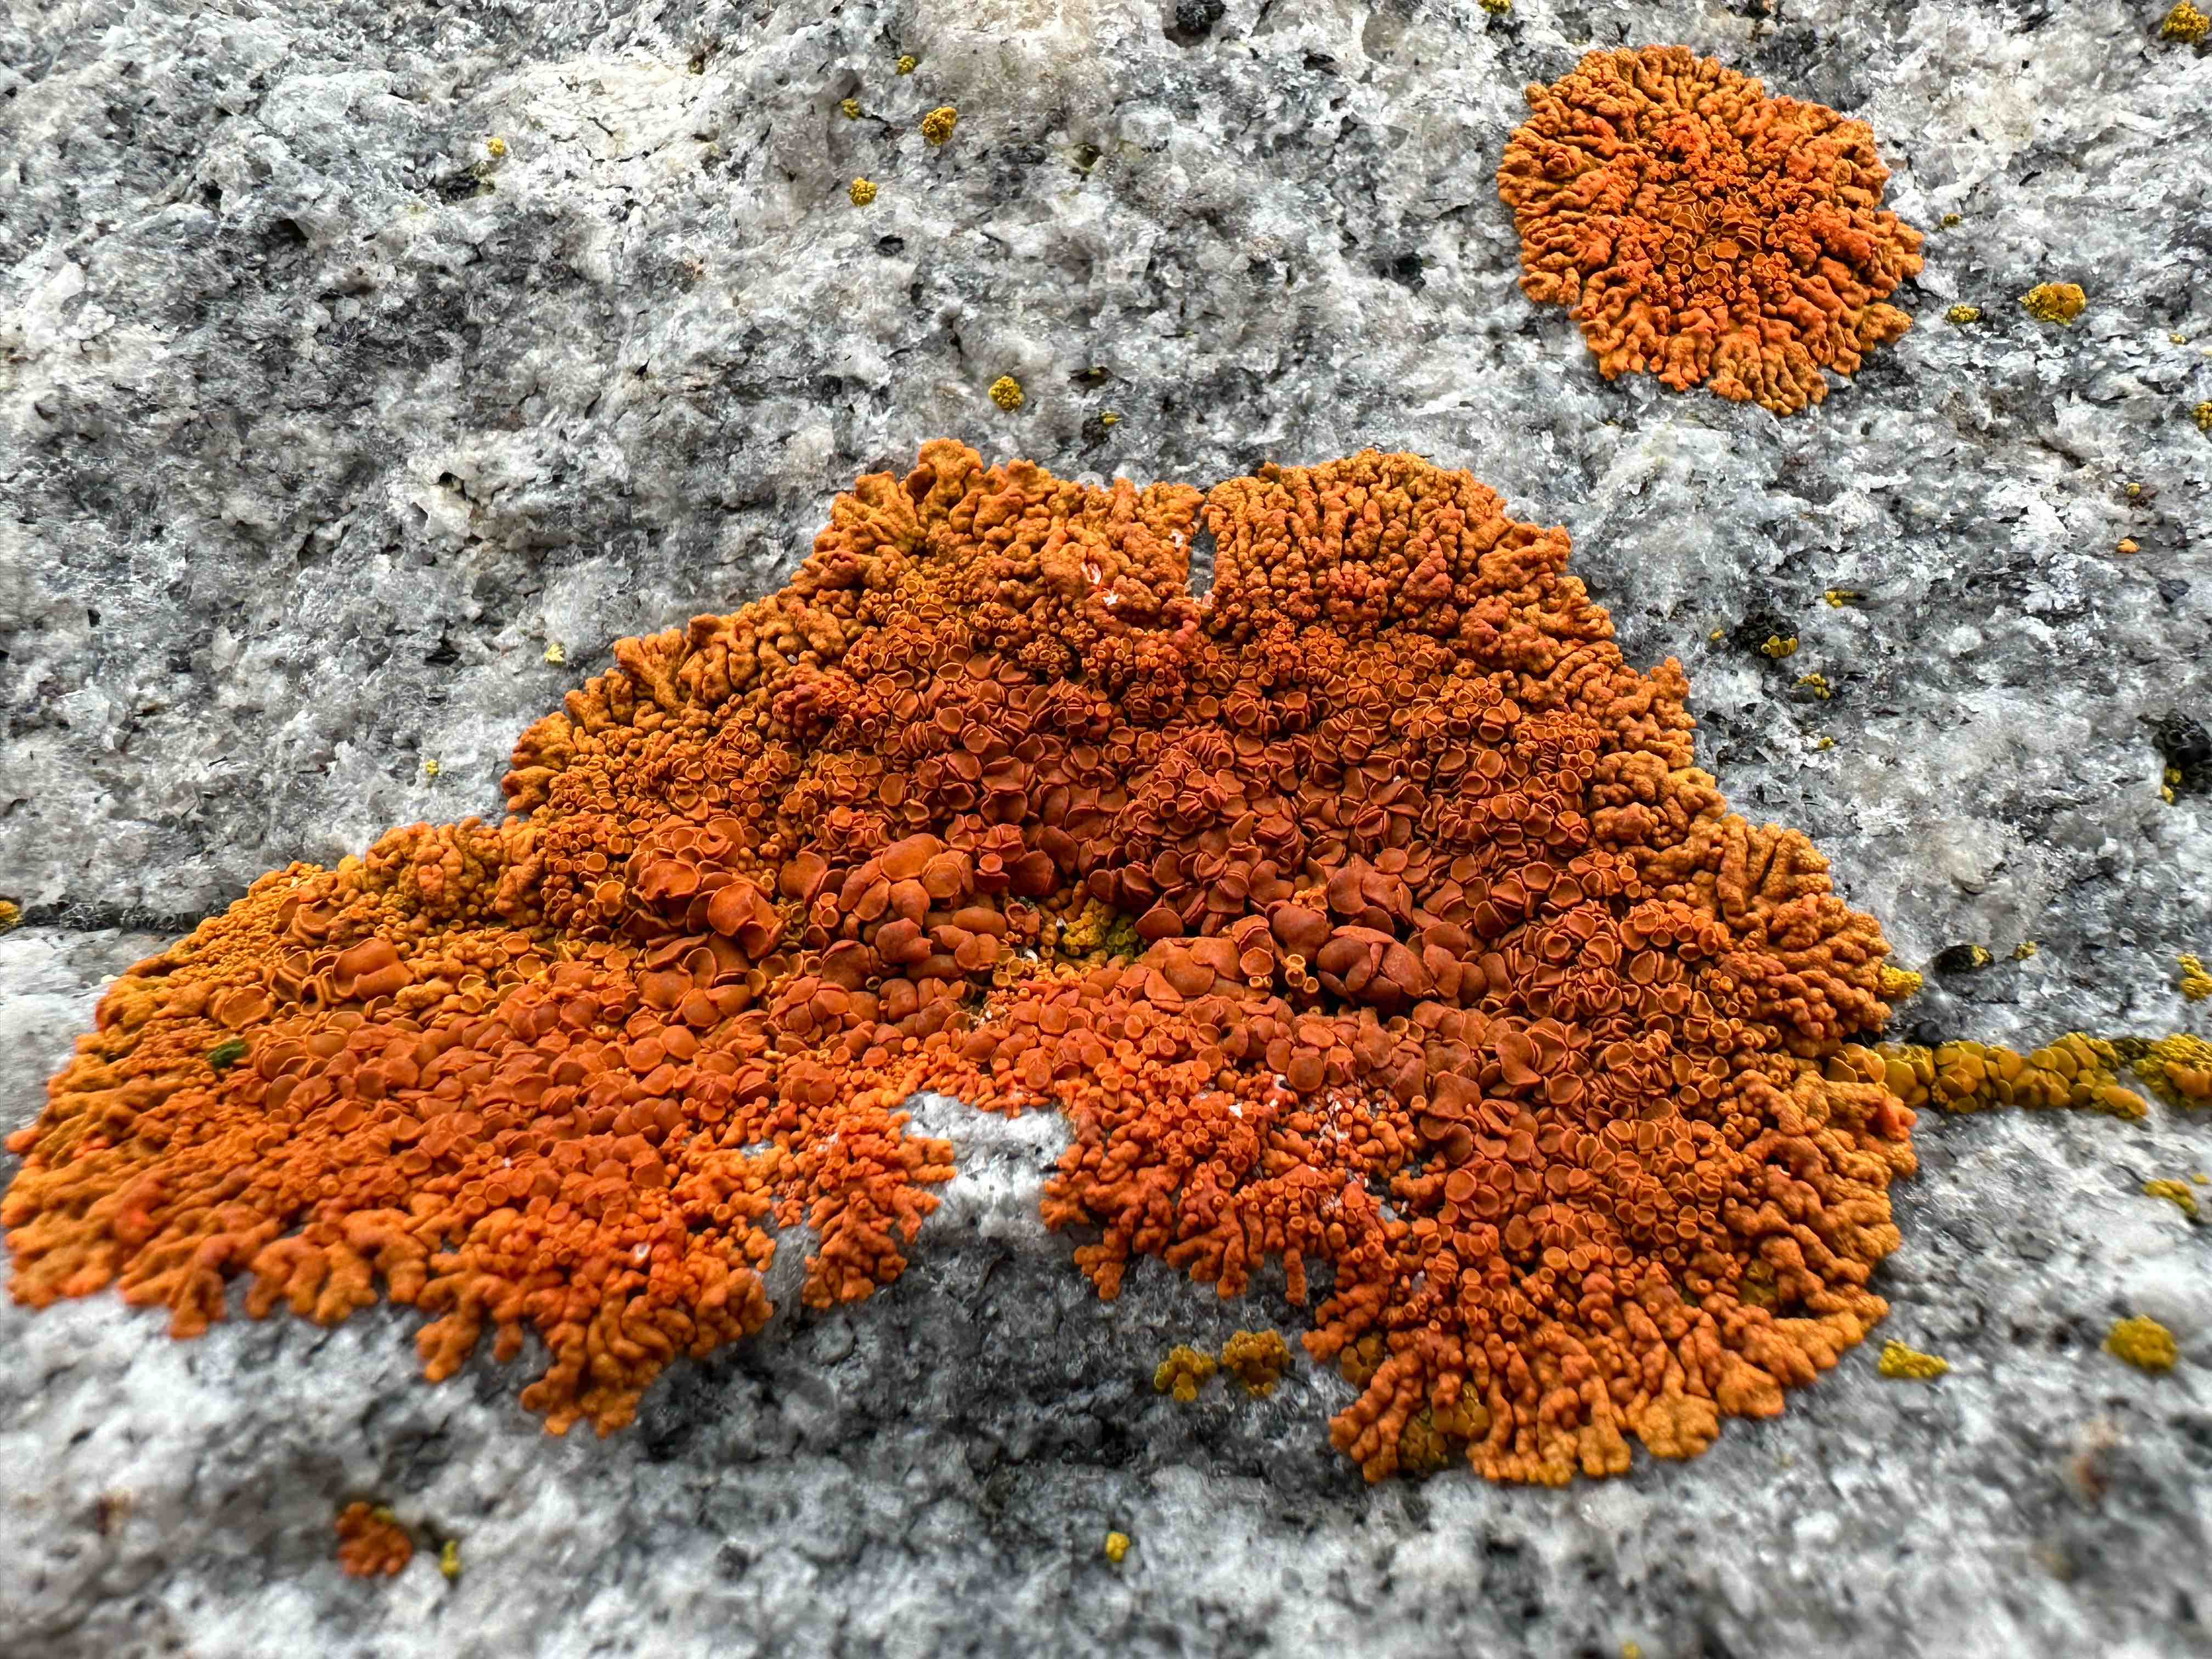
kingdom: Fungi
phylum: Ascomycota
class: Lecanoromycetes
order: Teloschistales
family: Teloschistaceae
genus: Xanthoria
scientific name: Xanthoria elegans
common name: fjeld-væggelav
